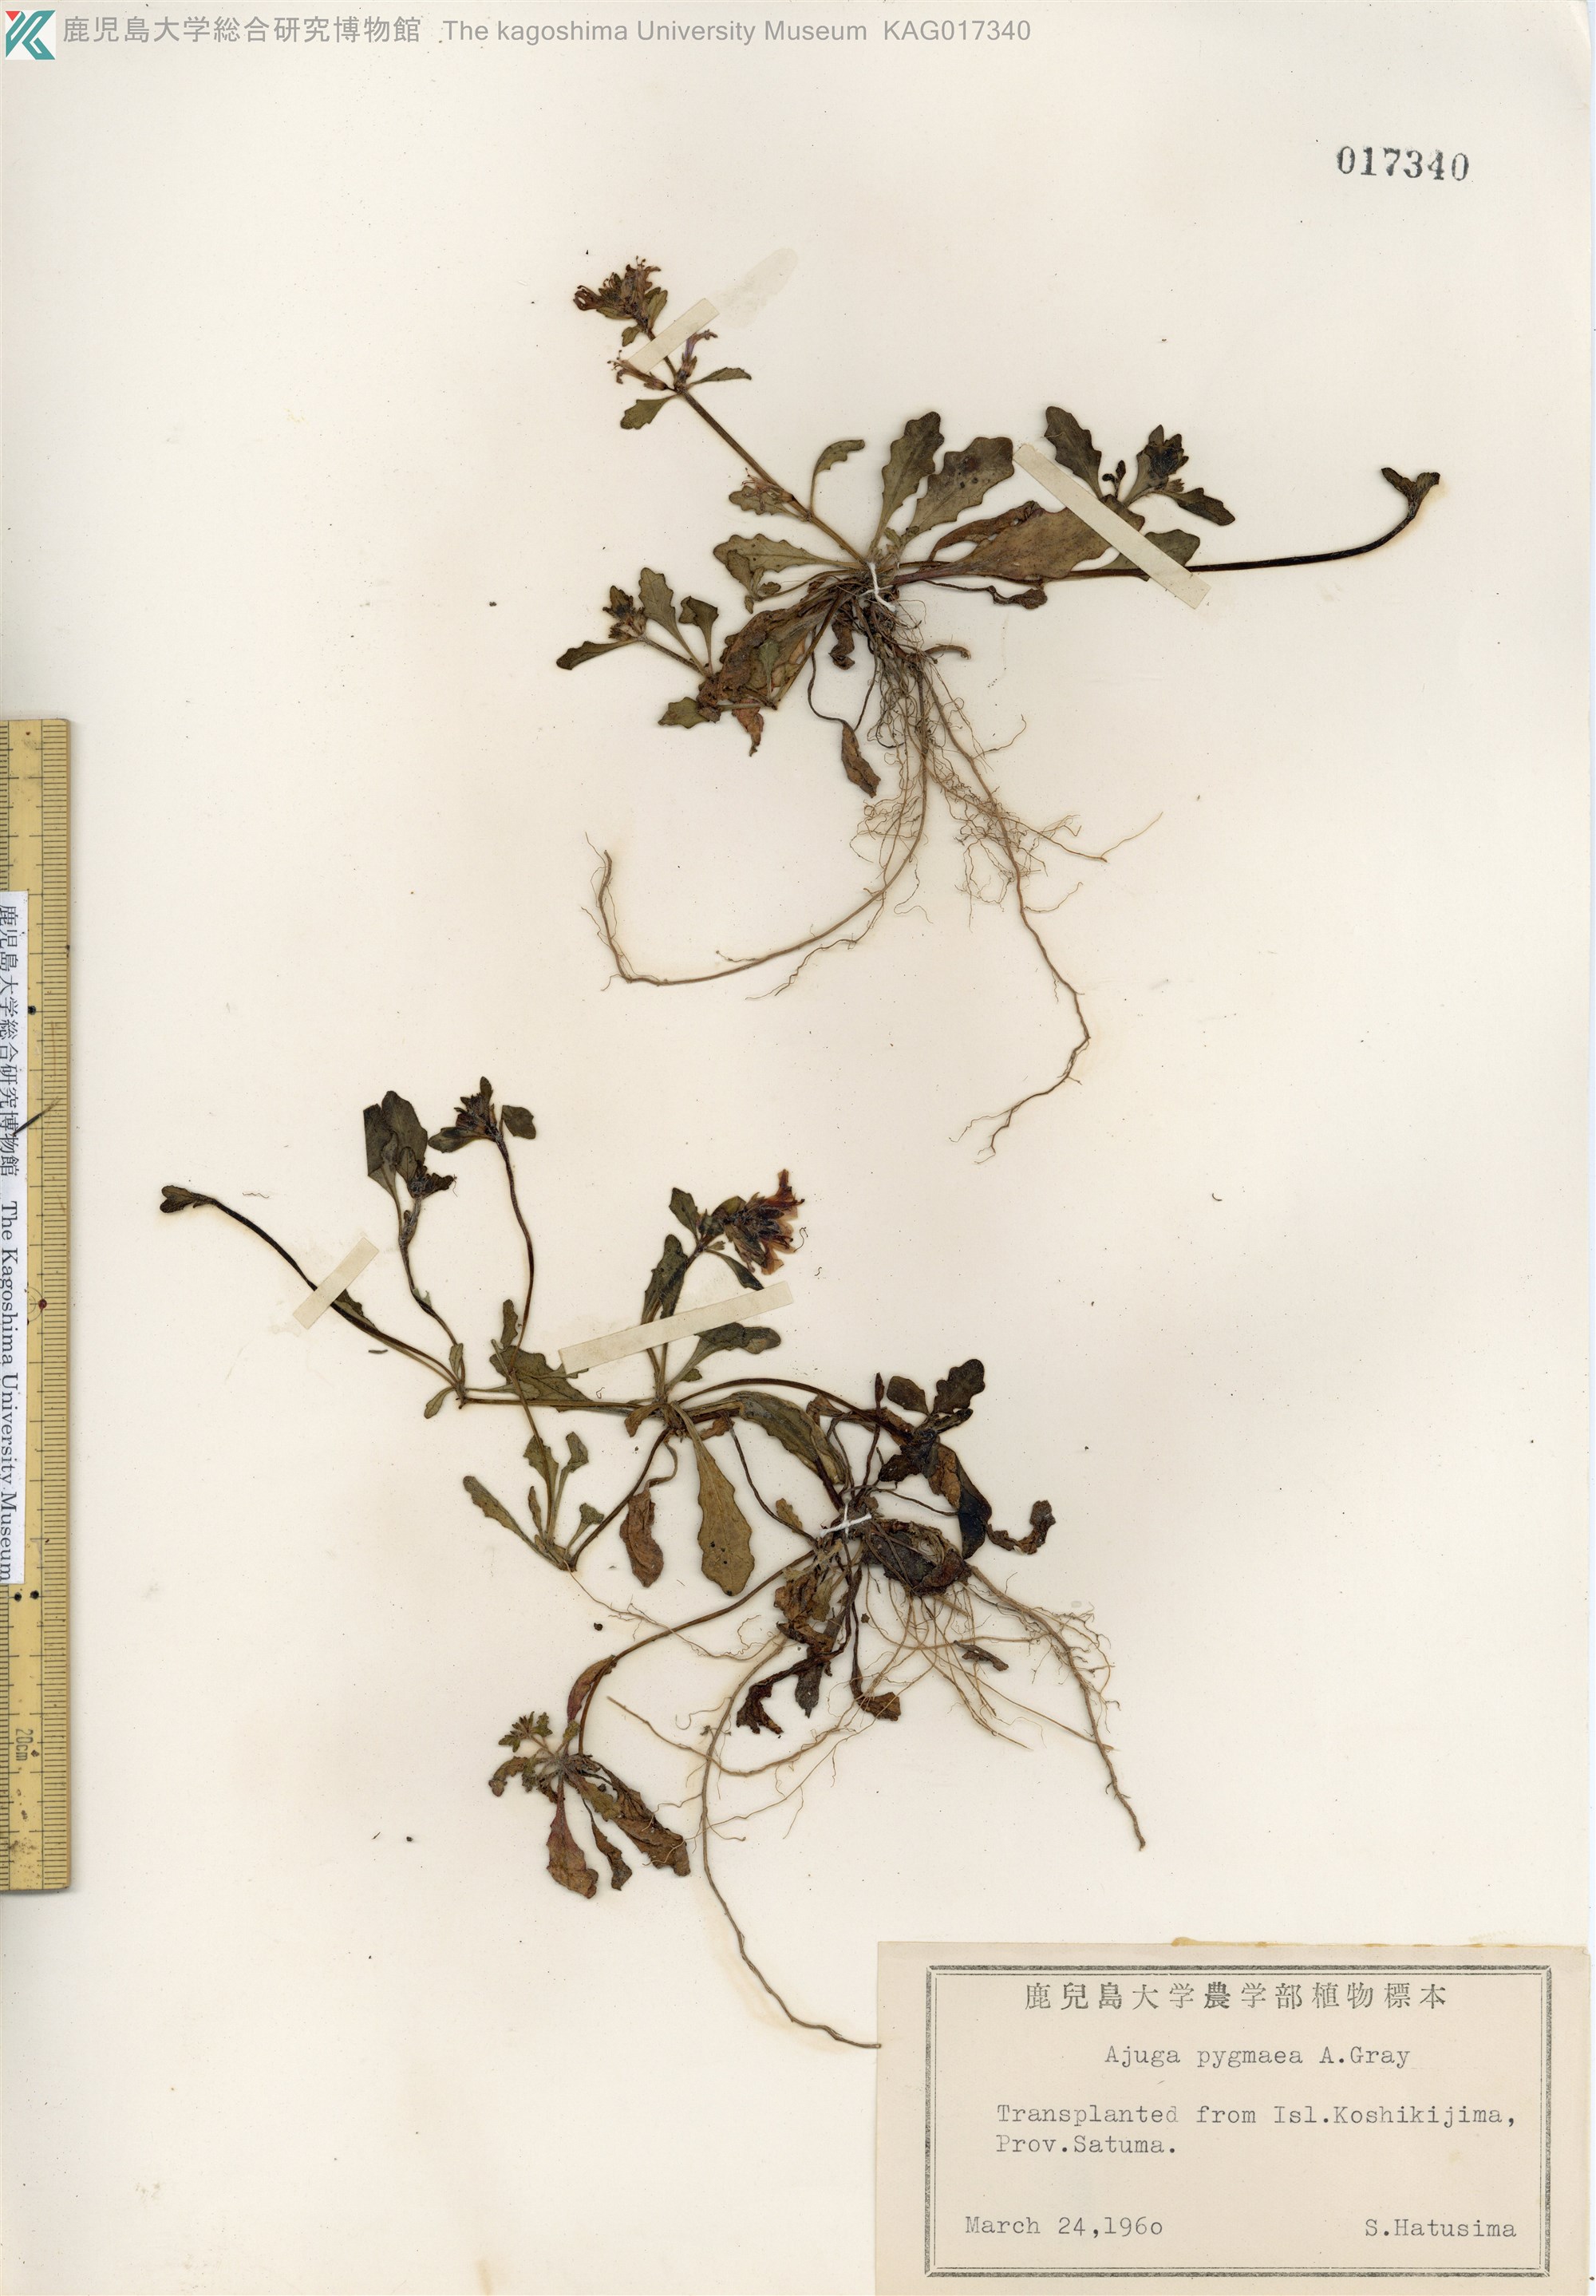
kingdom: Plantae
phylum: Tracheophyta
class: Magnoliopsida
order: Lamiales
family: Lamiaceae
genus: Ajuga
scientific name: Ajuga pygmaea
